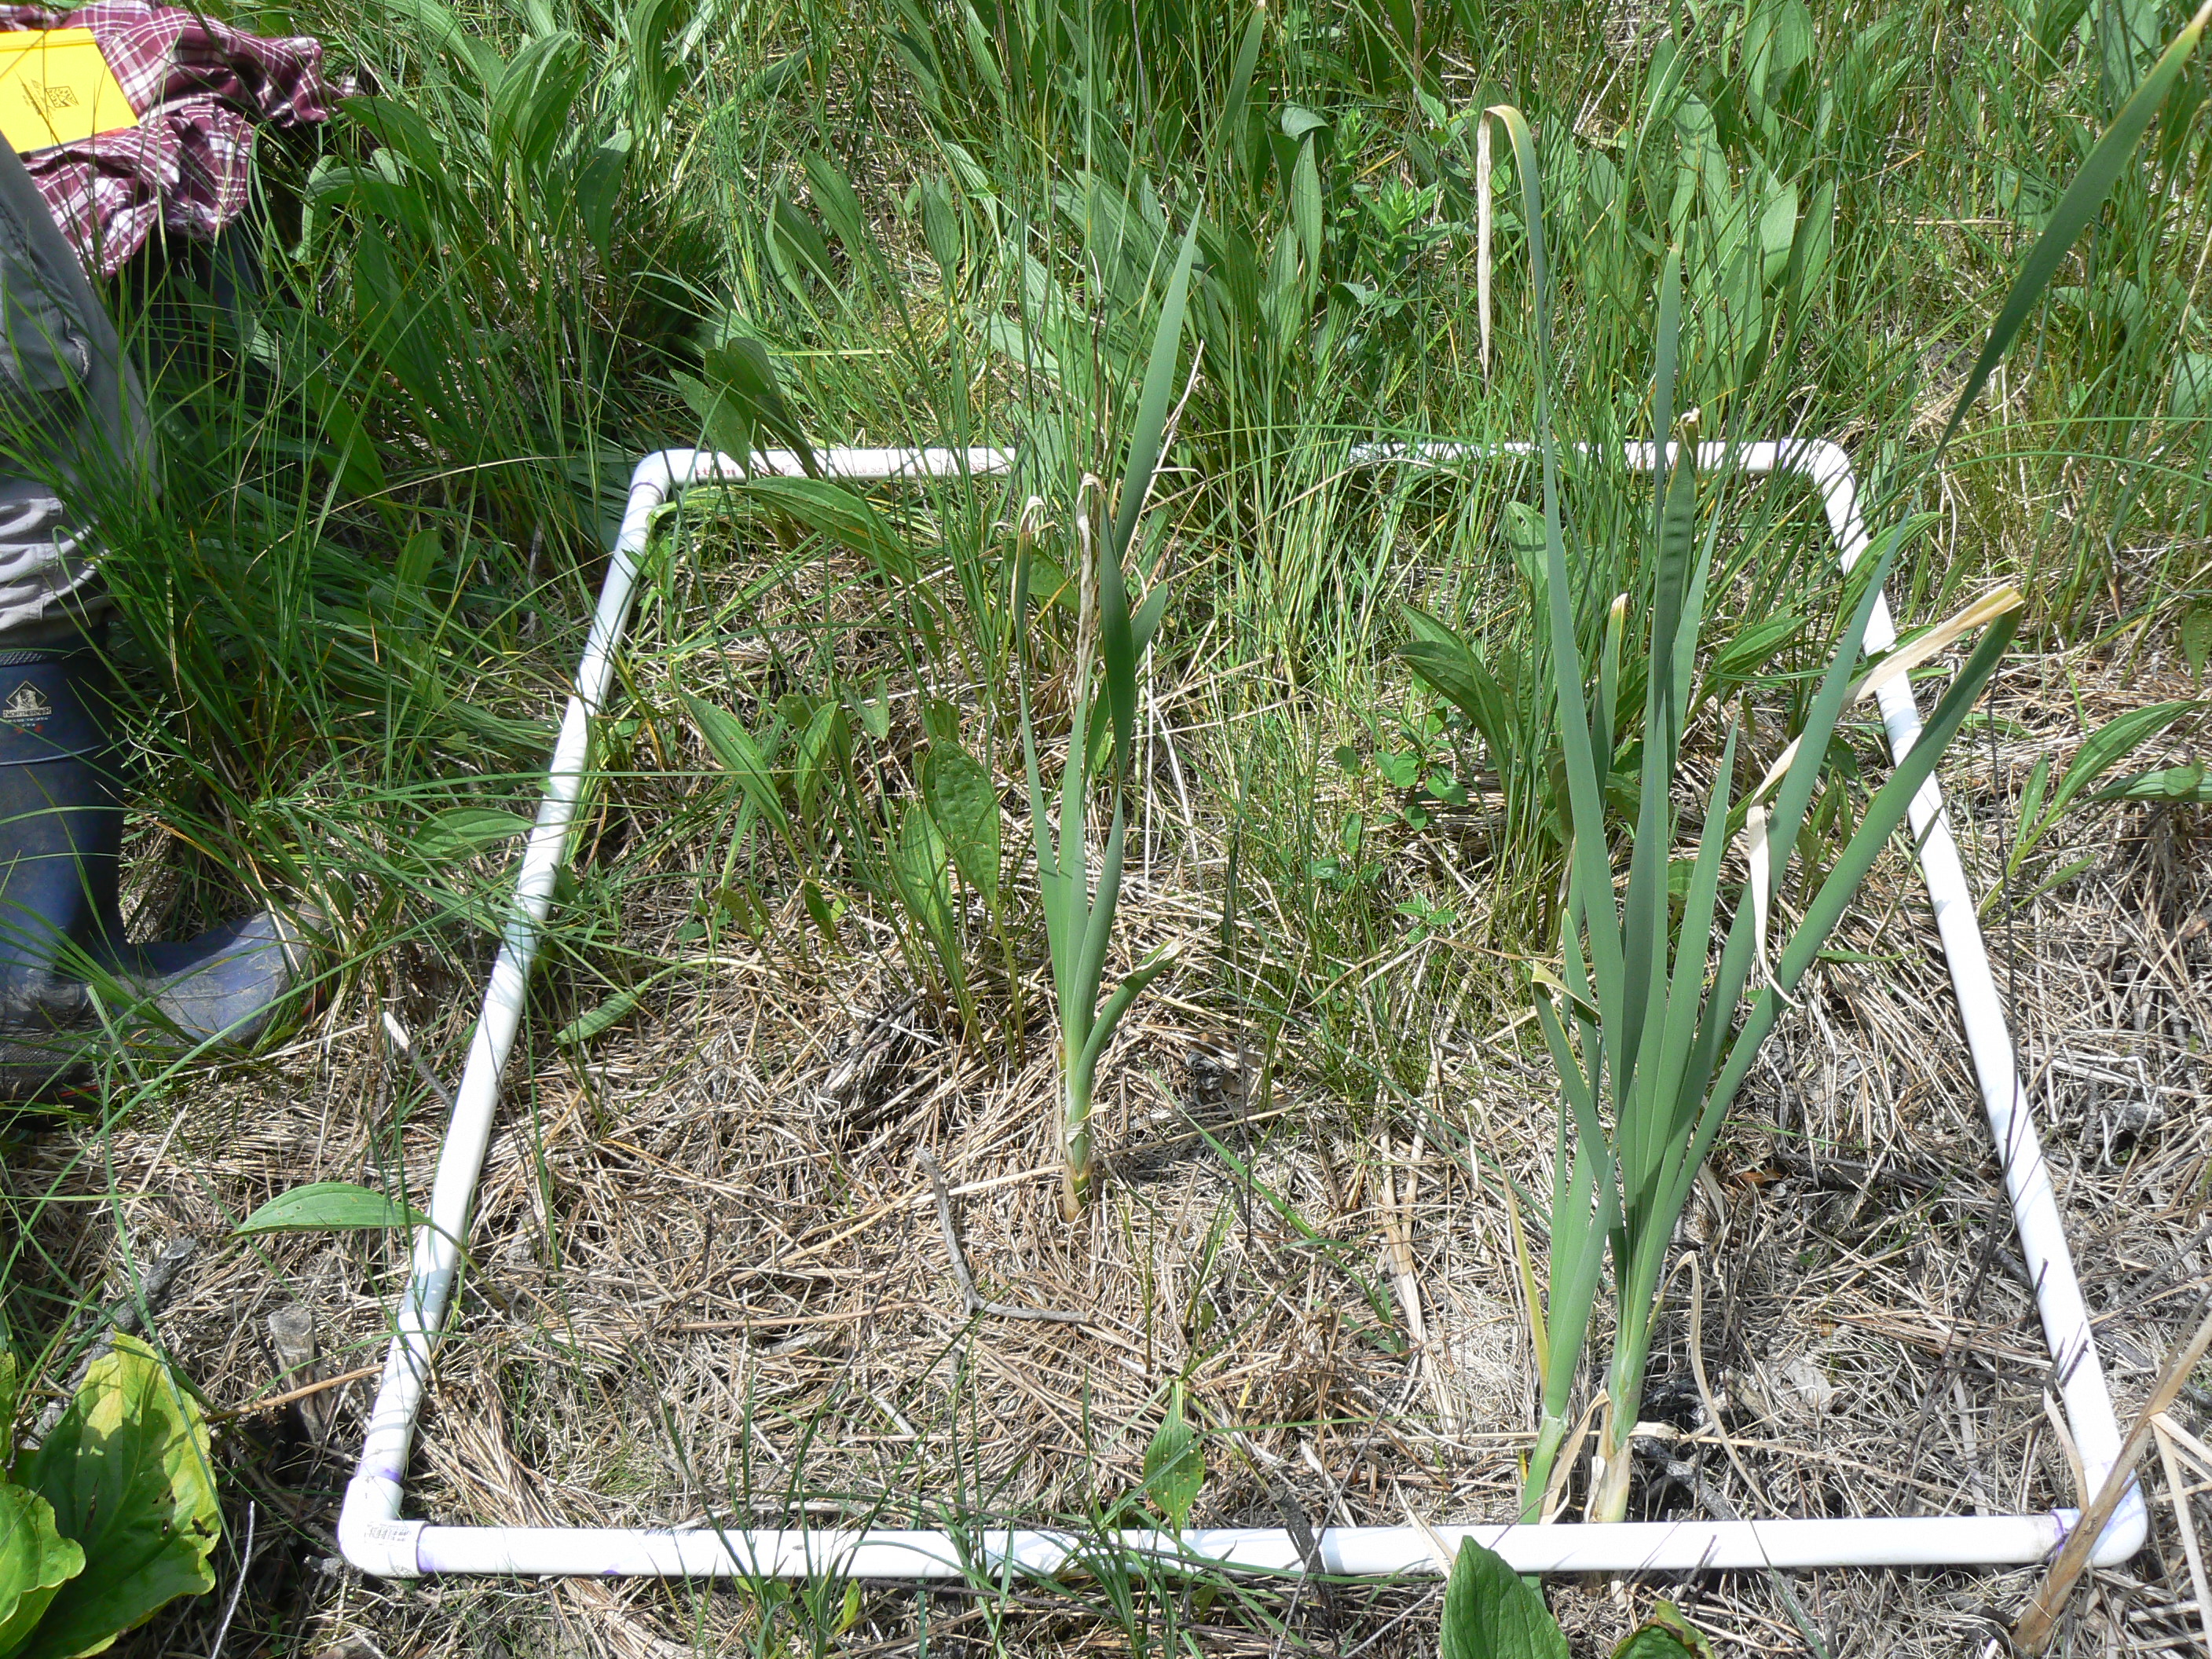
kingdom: Plantae
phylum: Tracheophyta
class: Liliopsida
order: Poales
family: Cyperaceae
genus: Carex
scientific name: Carex leptalea
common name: Bristly-stalked sedge
